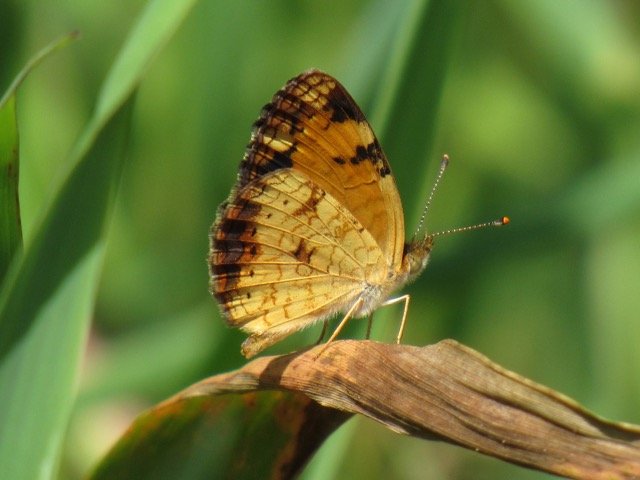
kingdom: Animalia
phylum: Arthropoda
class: Insecta
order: Lepidoptera
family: Nymphalidae
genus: Phyciodes
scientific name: Phyciodes tharos
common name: Pearl Crescent
